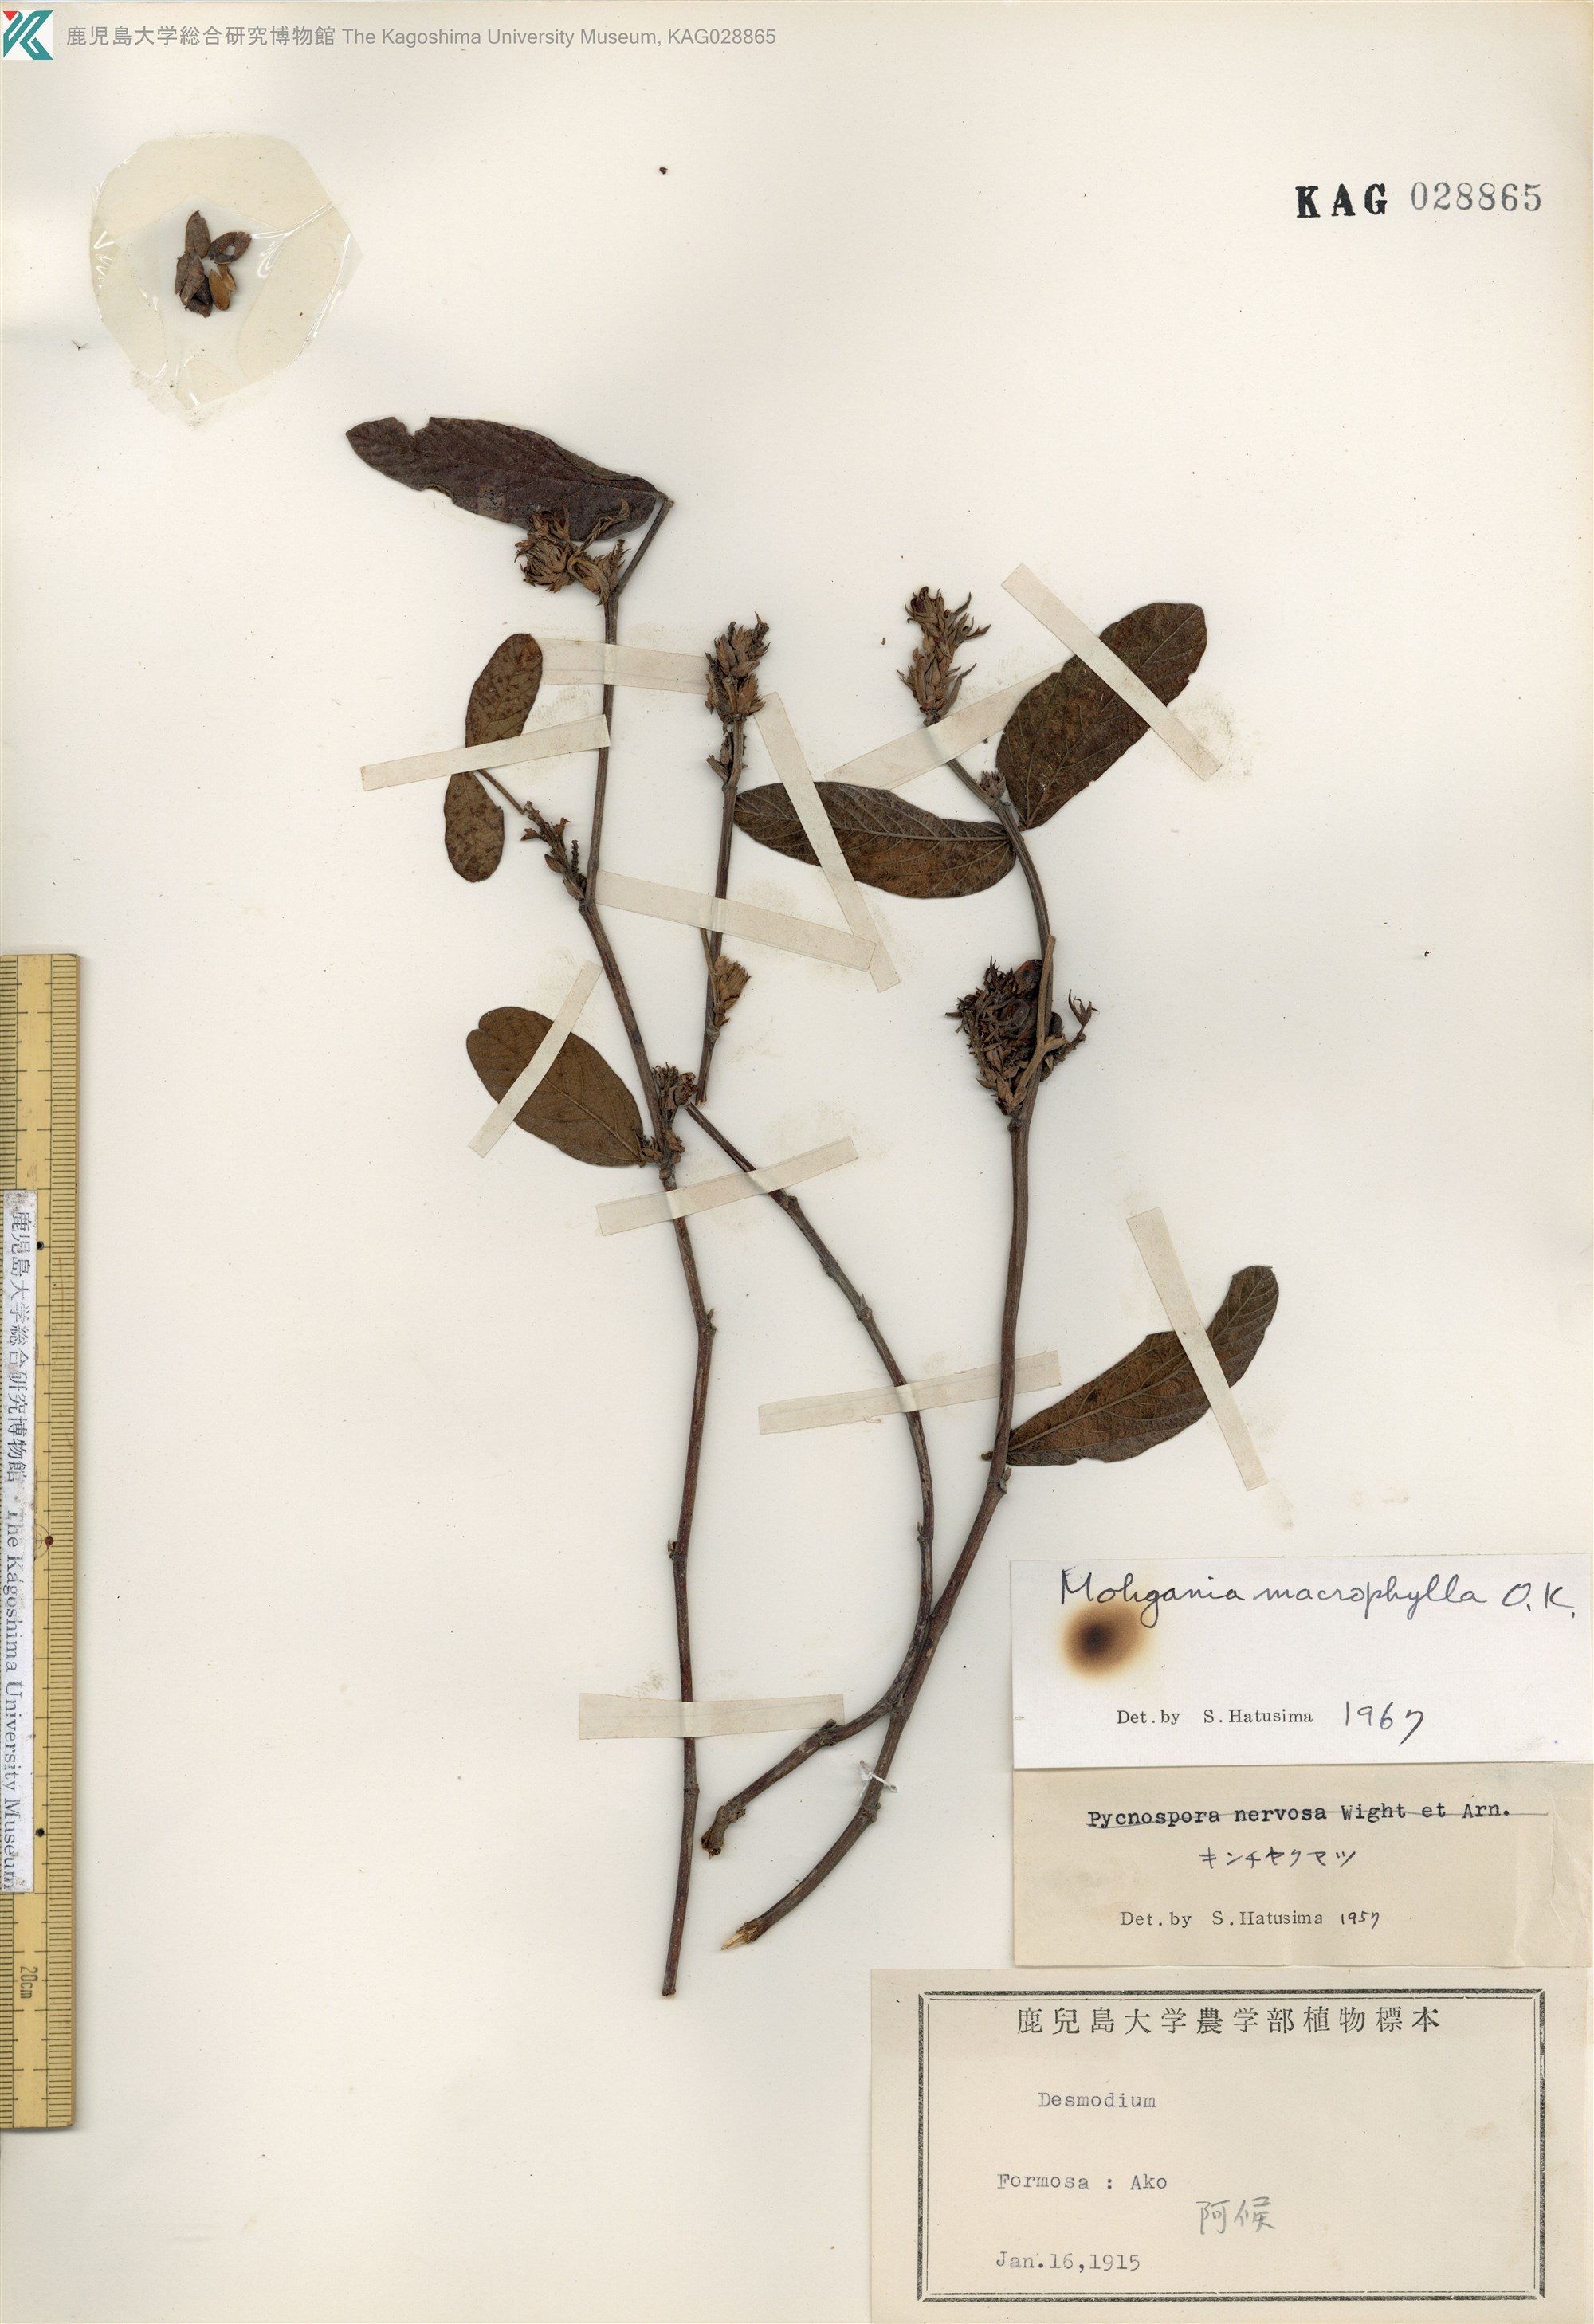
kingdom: Plantae
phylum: Tracheophyta
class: Magnoliopsida
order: Fabales
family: Fabaceae
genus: Flemingia
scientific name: Flemingia prostrata
